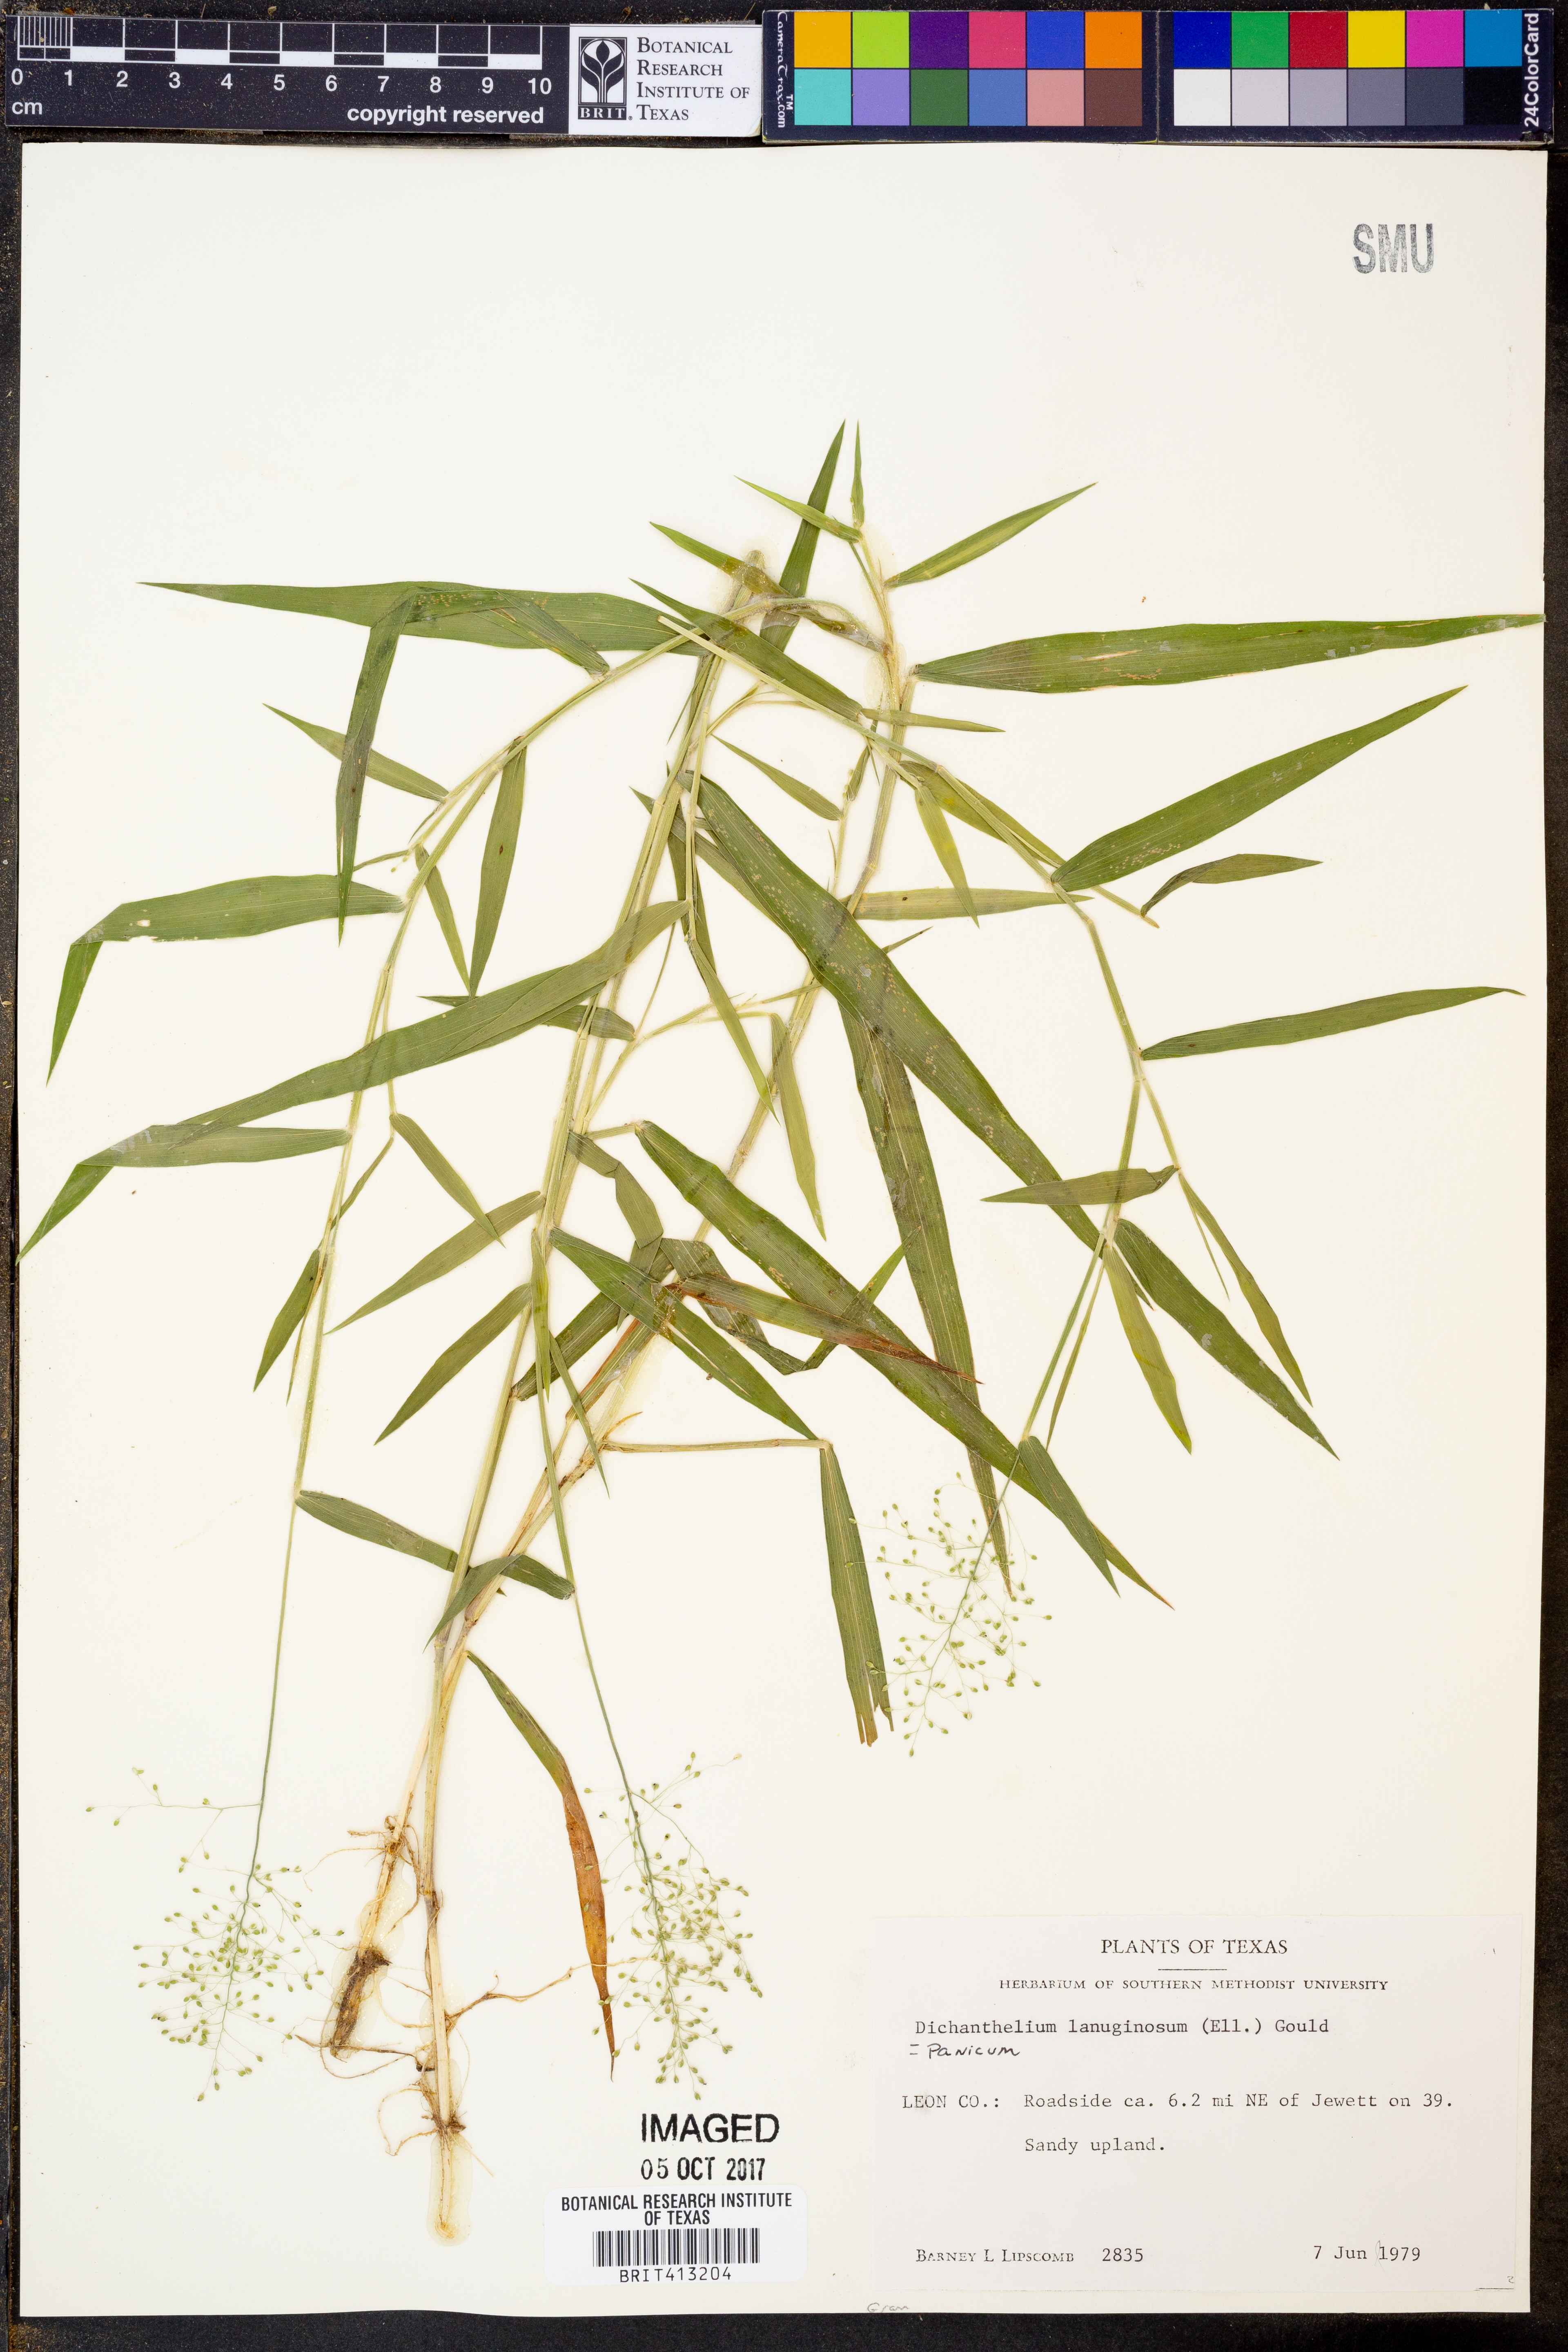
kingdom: Plantae
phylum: Tracheophyta
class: Liliopsida
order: Poales
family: Poaceae
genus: Dichanthelium
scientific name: Dichanthelium lanuginosum
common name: Woolly panicgrass
